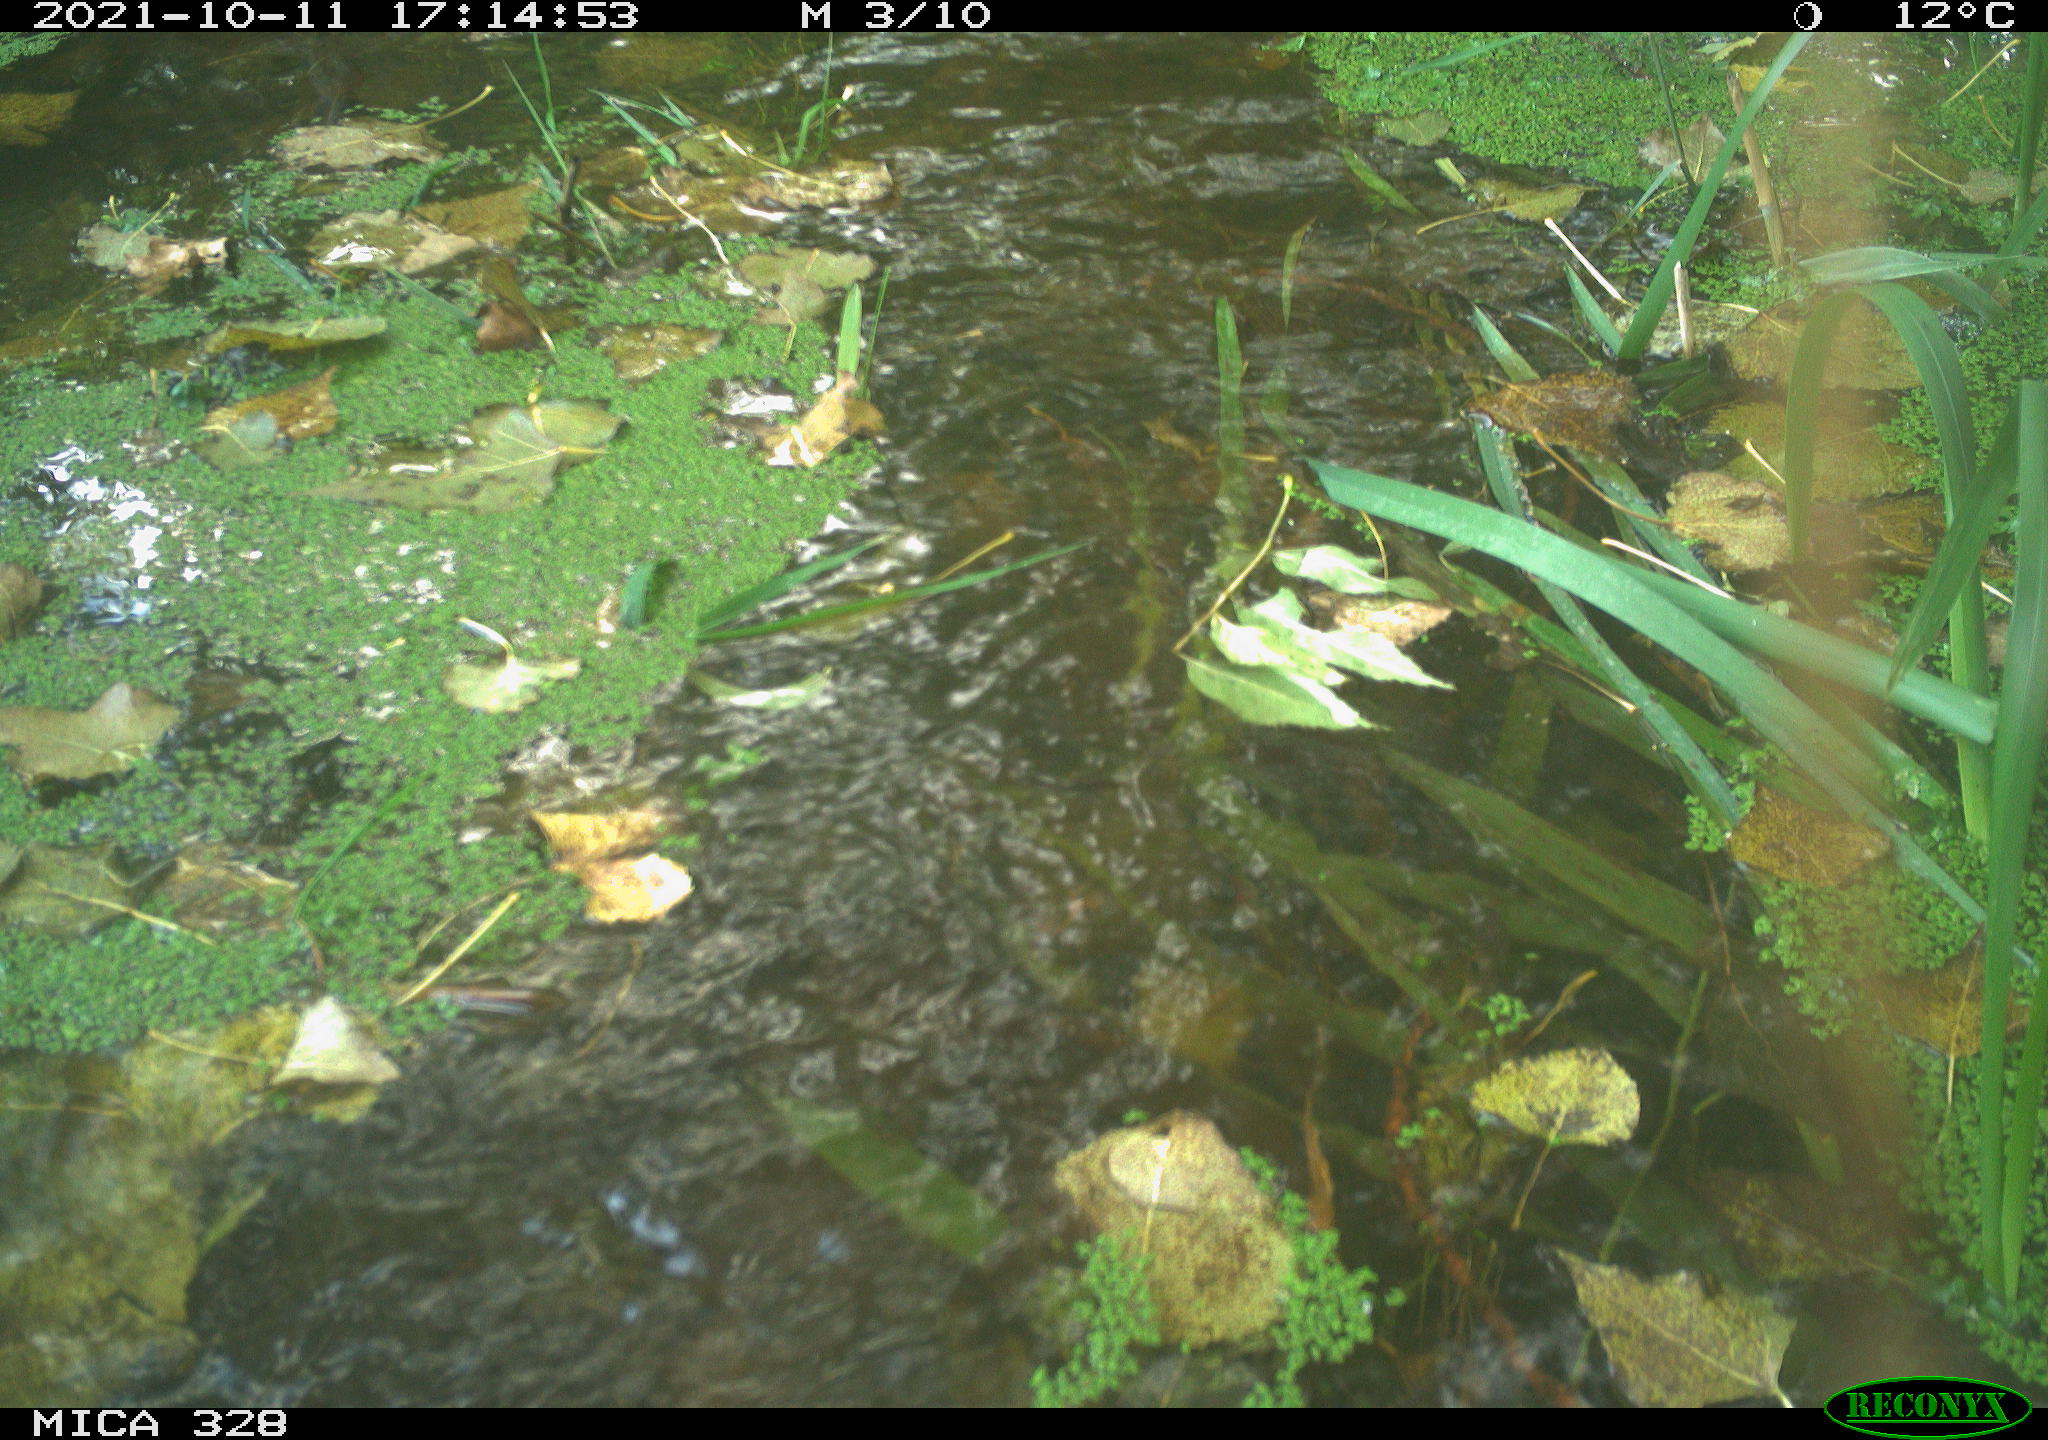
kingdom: Animalia
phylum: Chordata
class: Mammalia
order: Rodentia
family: Cricetidae
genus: Ondatra
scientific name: Ondatra zibethicus
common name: Muskrat
